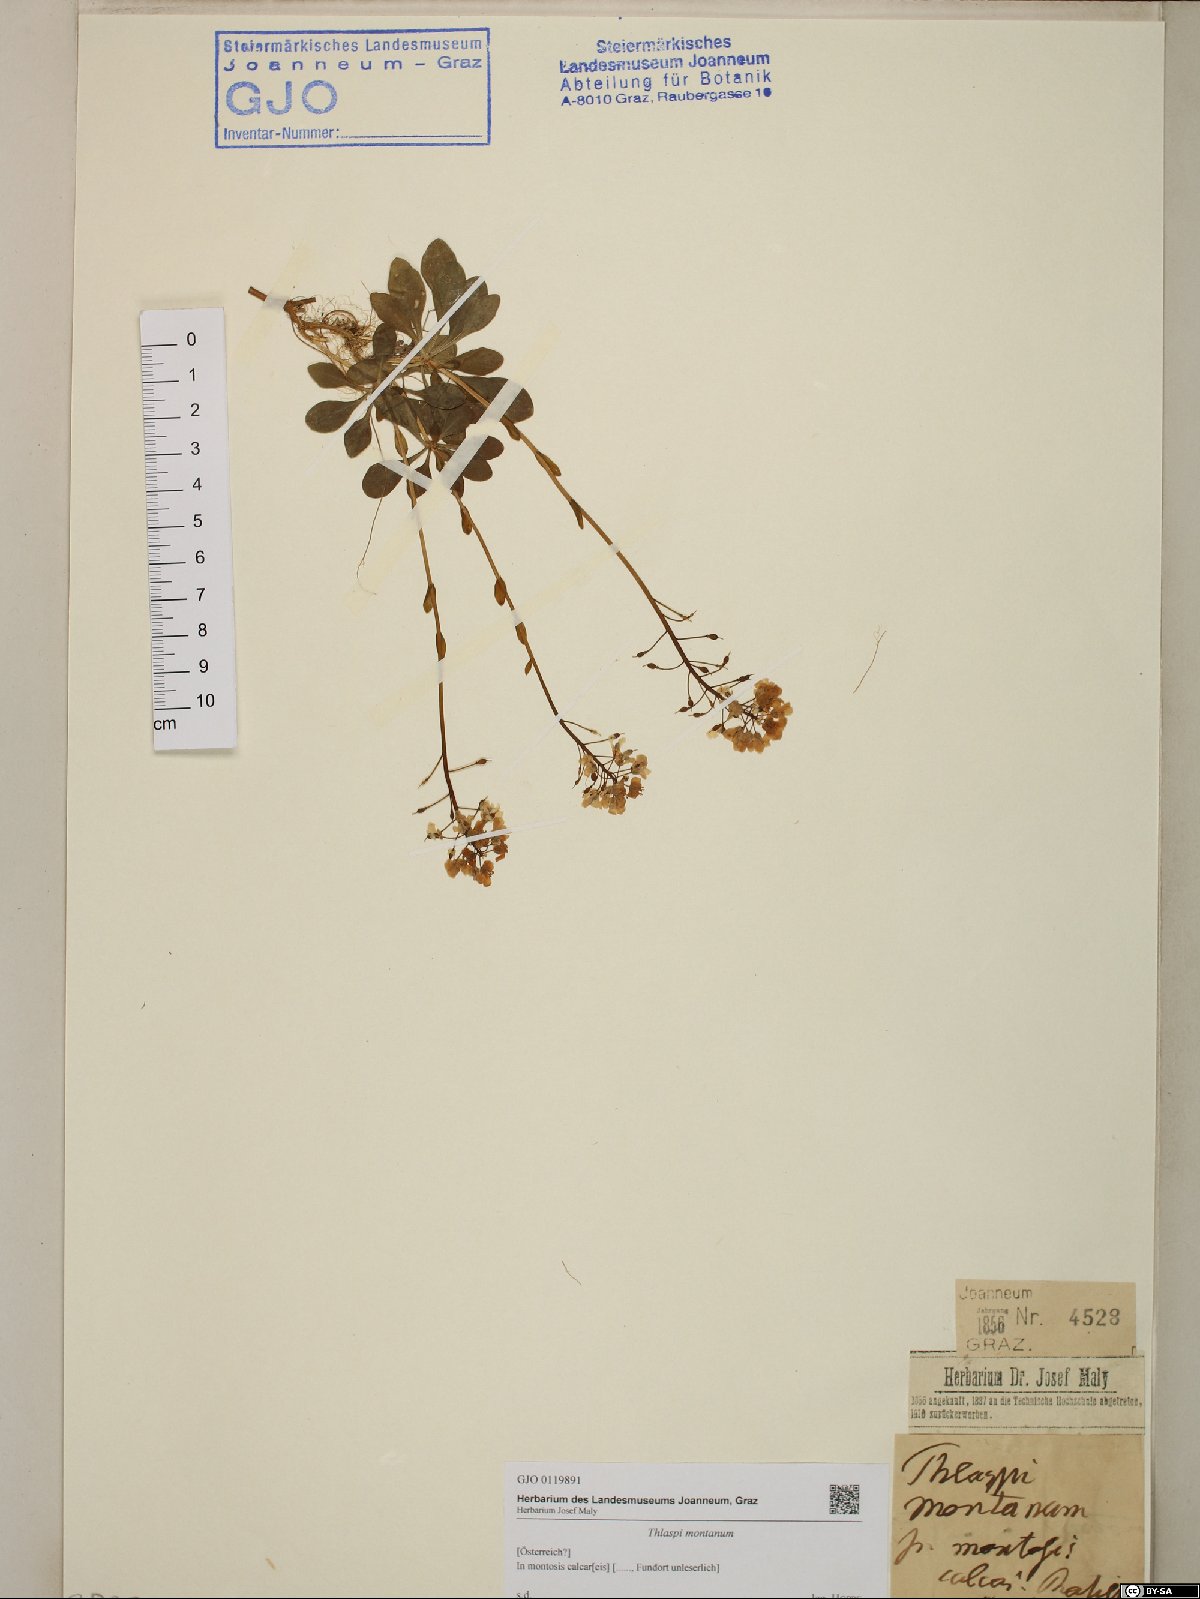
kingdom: Plantae
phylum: Tracheophyta
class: Magnoliopsida
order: Brassicales
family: Brassicaceae
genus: Noccaea
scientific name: Noccaea montana
